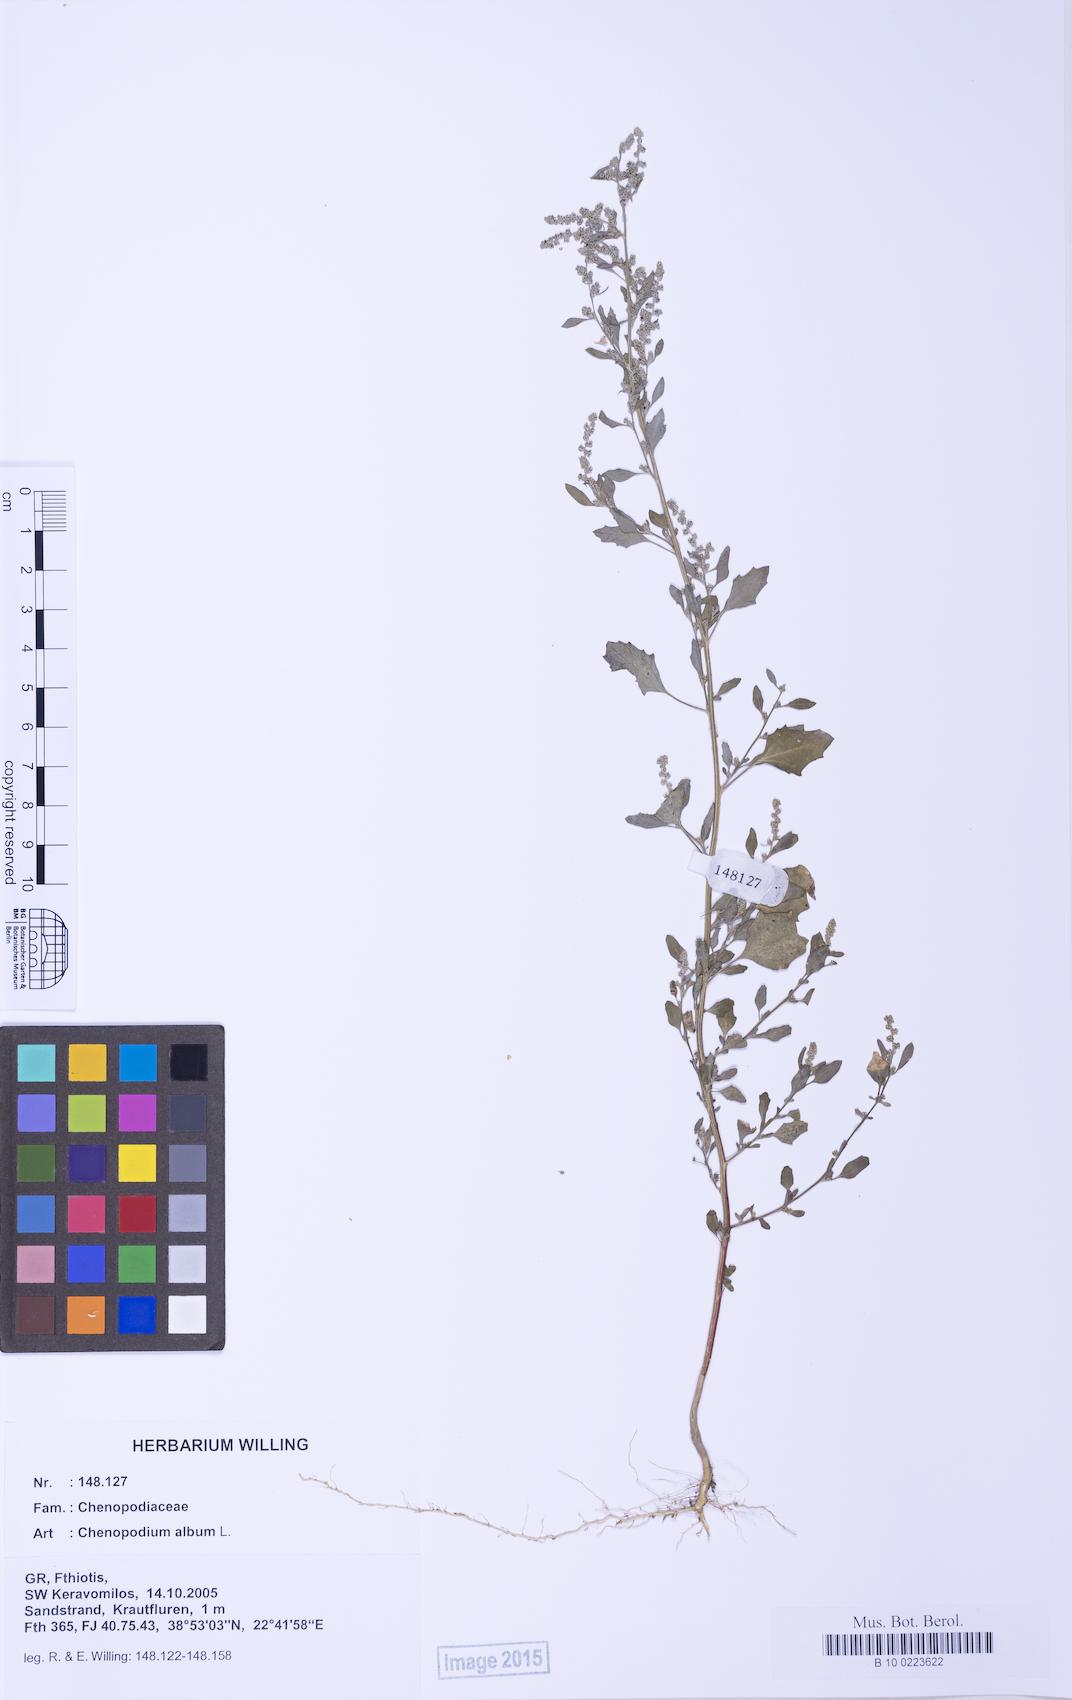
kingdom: Plantae
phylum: Tracheophyta
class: Magnoliopsida
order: Caryophyllales
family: Amaranthaceae
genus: Chenopodium
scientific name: Chenopodium striatiforme
